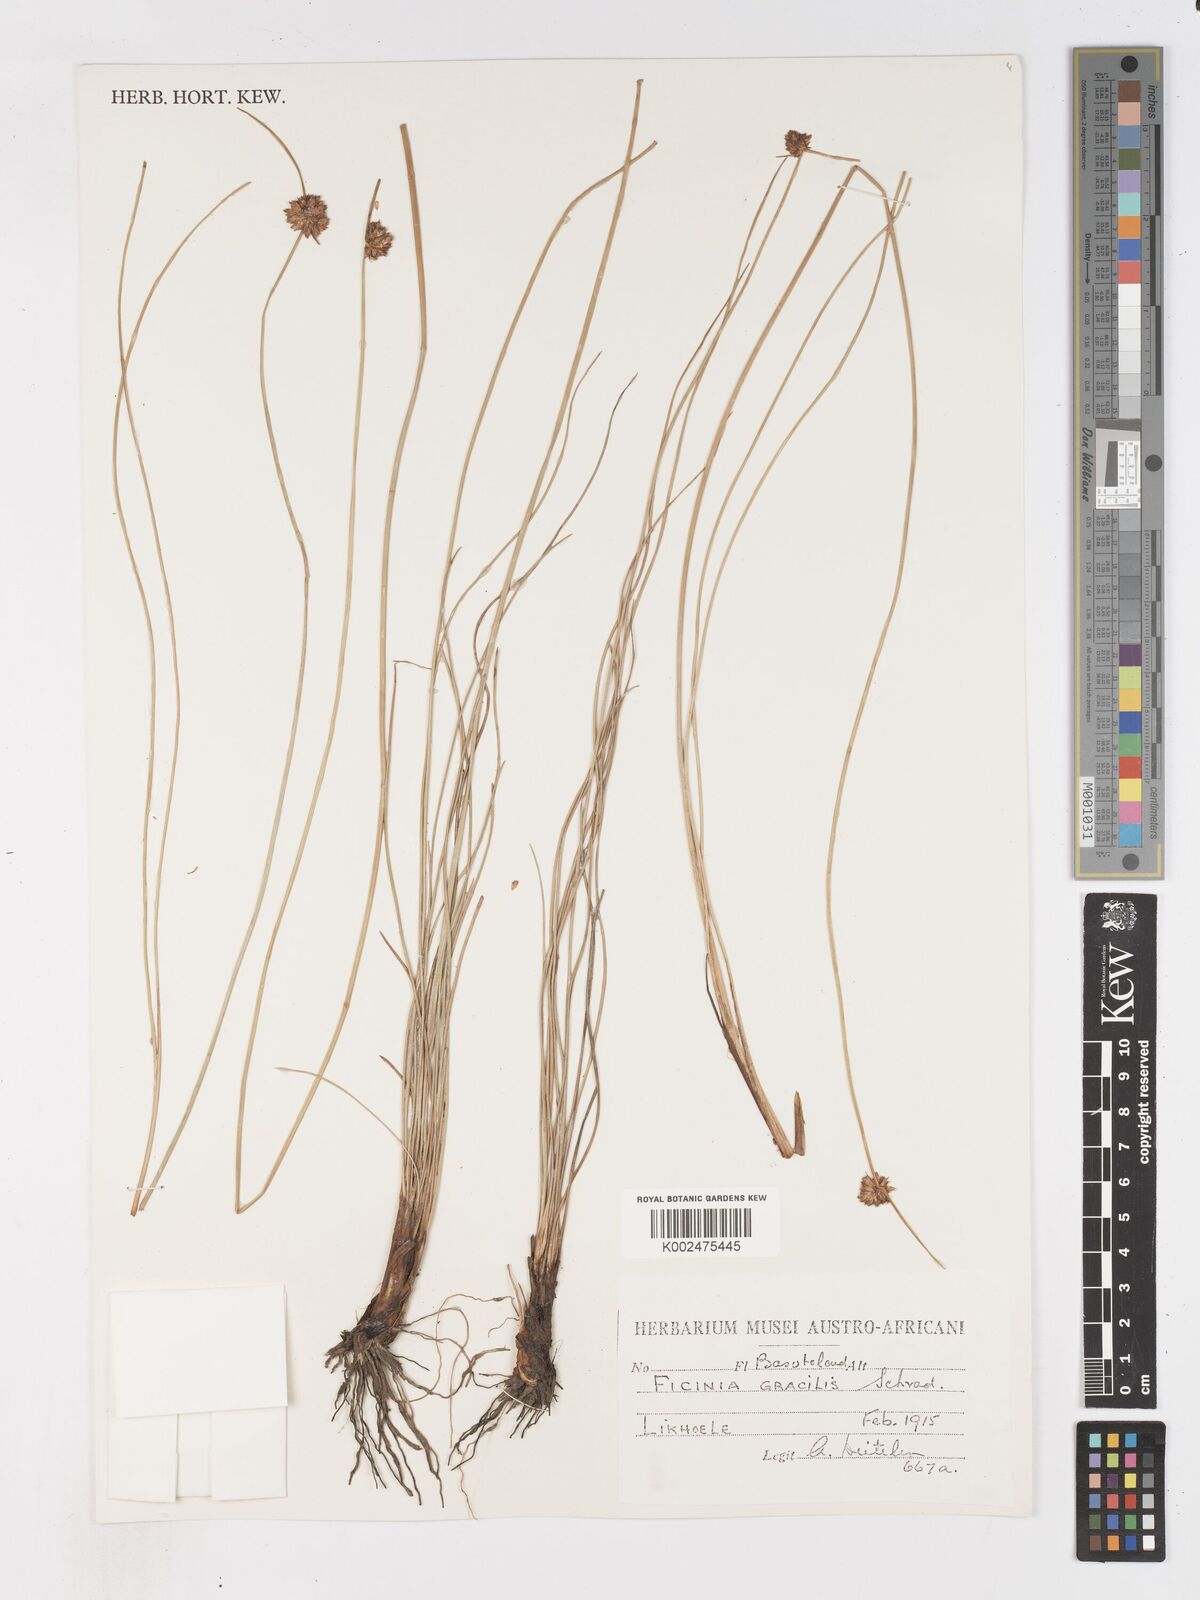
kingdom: Plantae
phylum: Tracheophyta
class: Liliopsida
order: Poales
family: Cyperaceae
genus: Ficinia
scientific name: Ficinia cinnamomea
